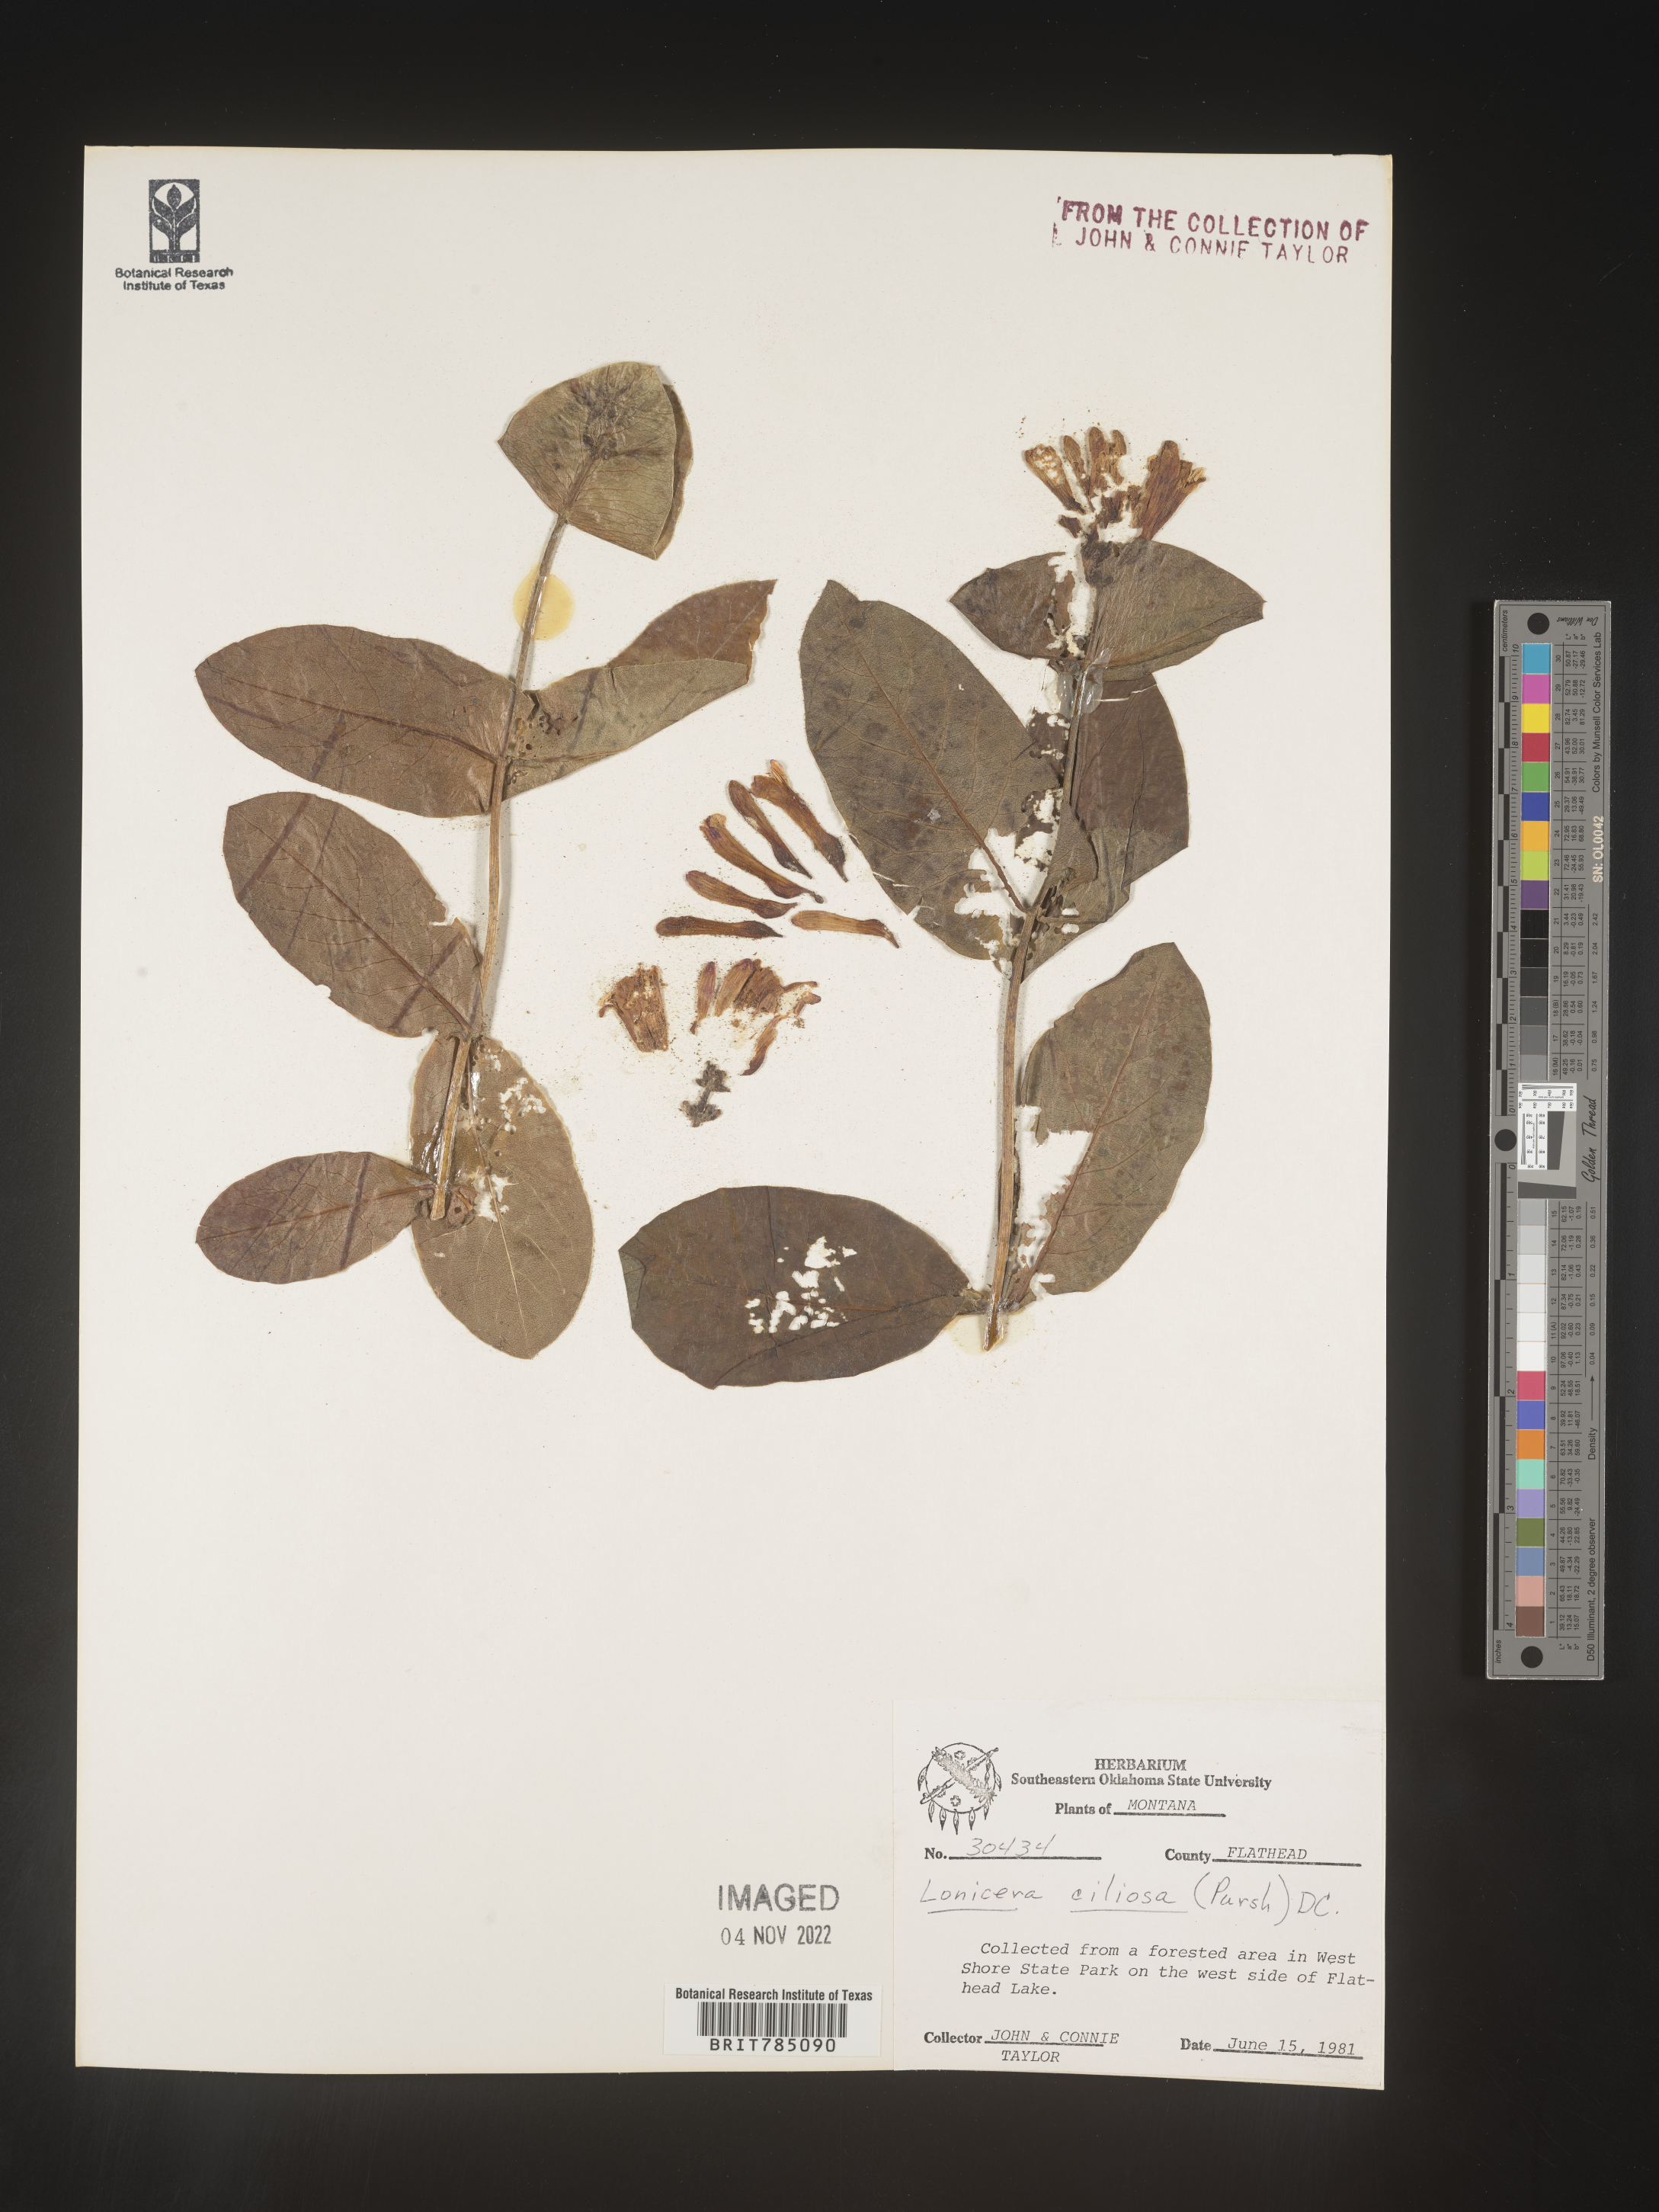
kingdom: Plantae
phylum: Tracheophyta
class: Magnoliopsida
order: Dipsacales
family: Caprifoliaceae
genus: Lonicera
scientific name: Lonicera
